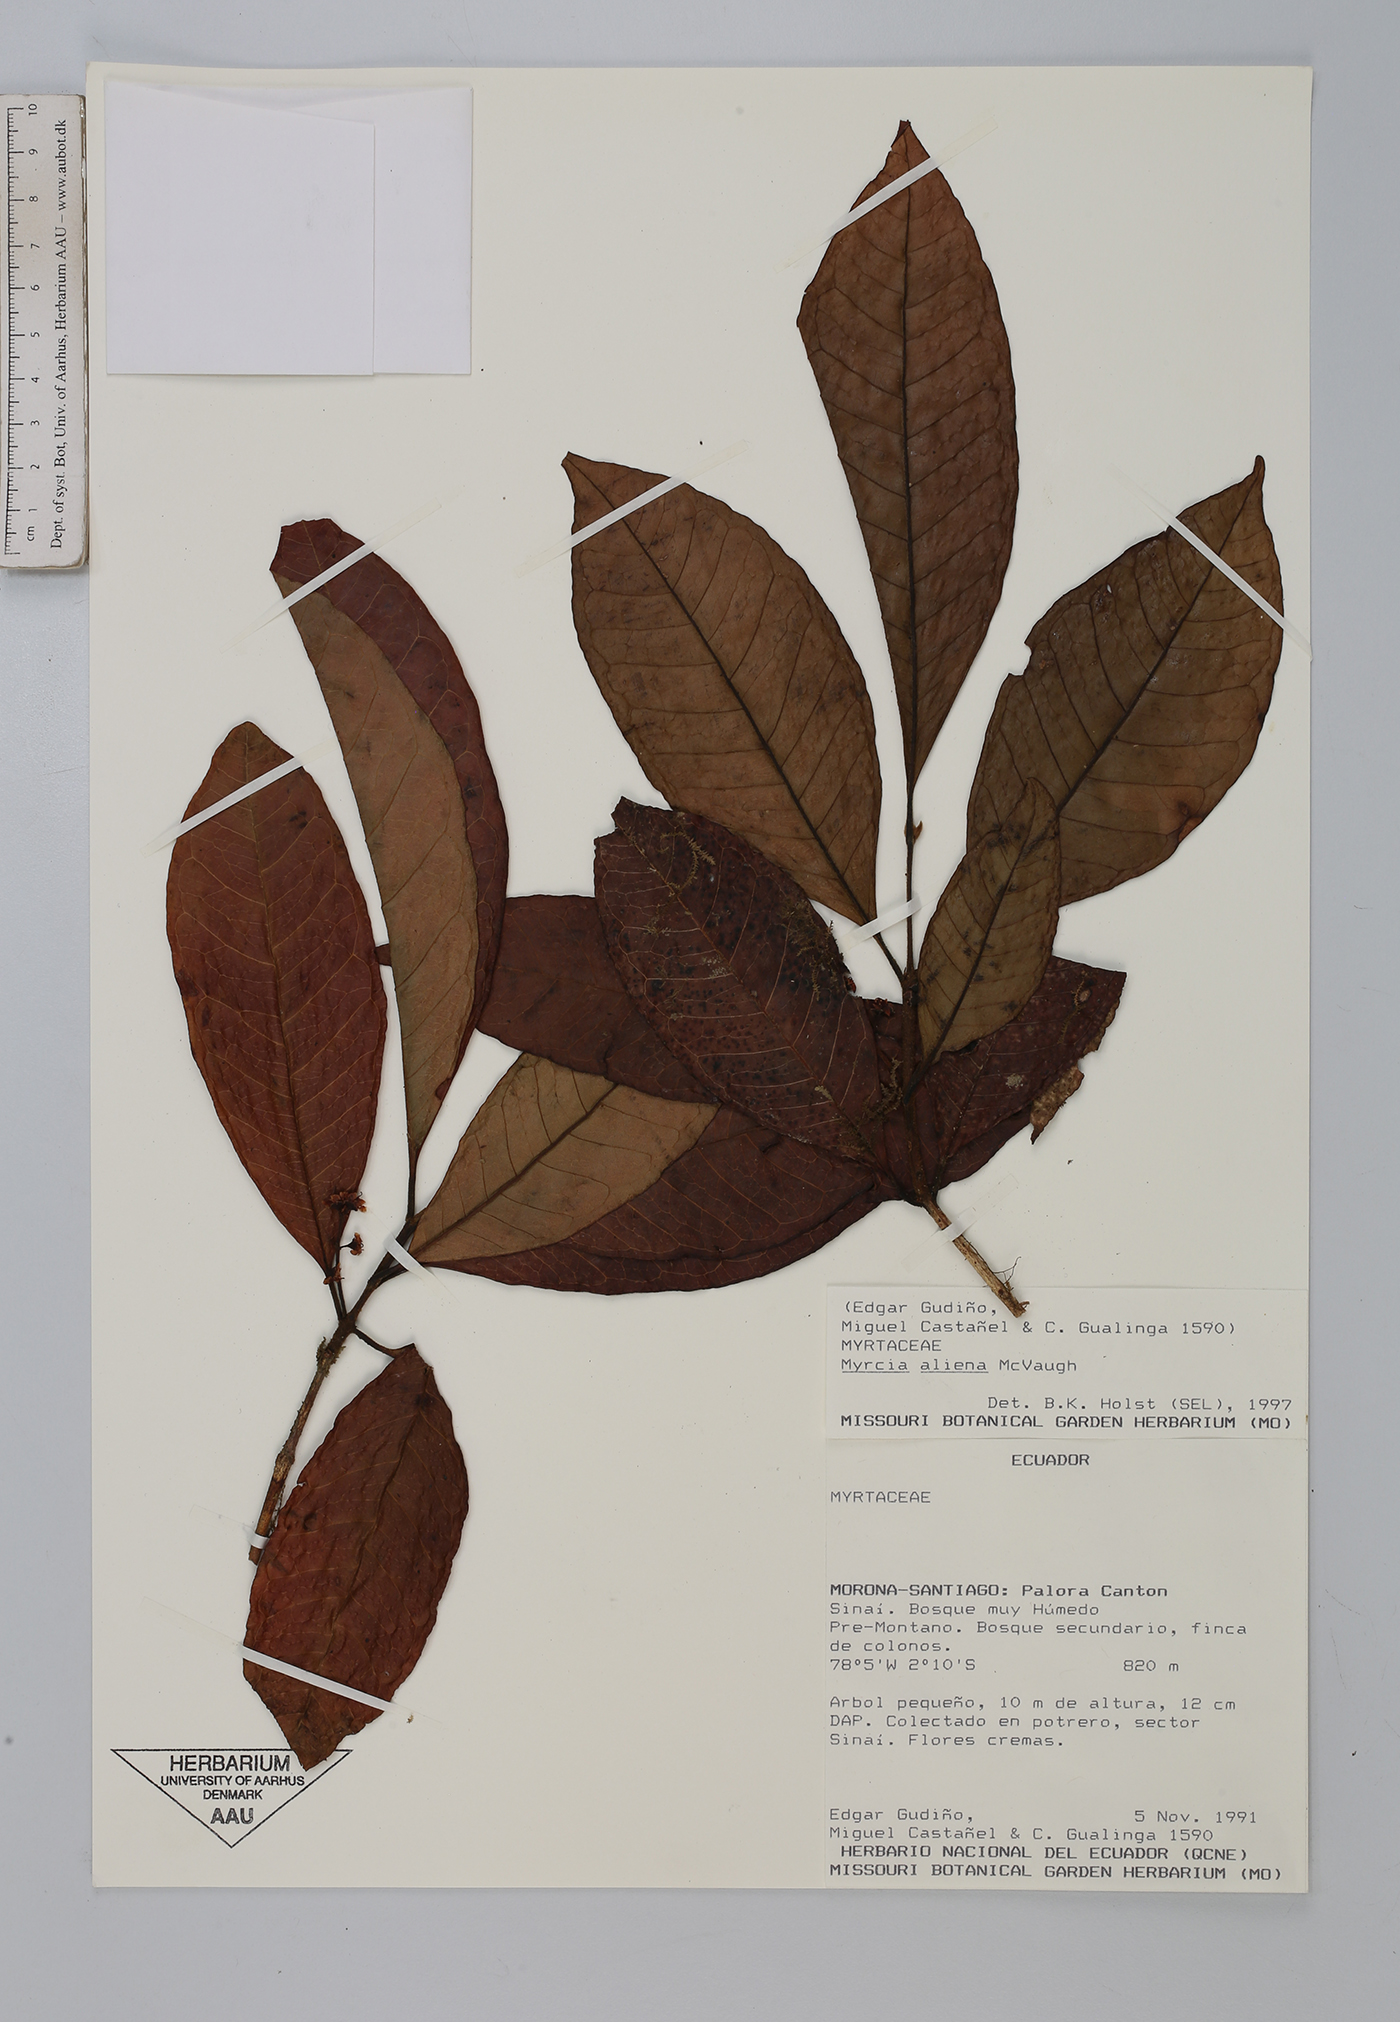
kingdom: Plantae
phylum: Tracheophyta
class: Magnoliopsida
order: Myrtales
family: Myrtaceae
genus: Myrcia
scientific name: Myrcia aliena
